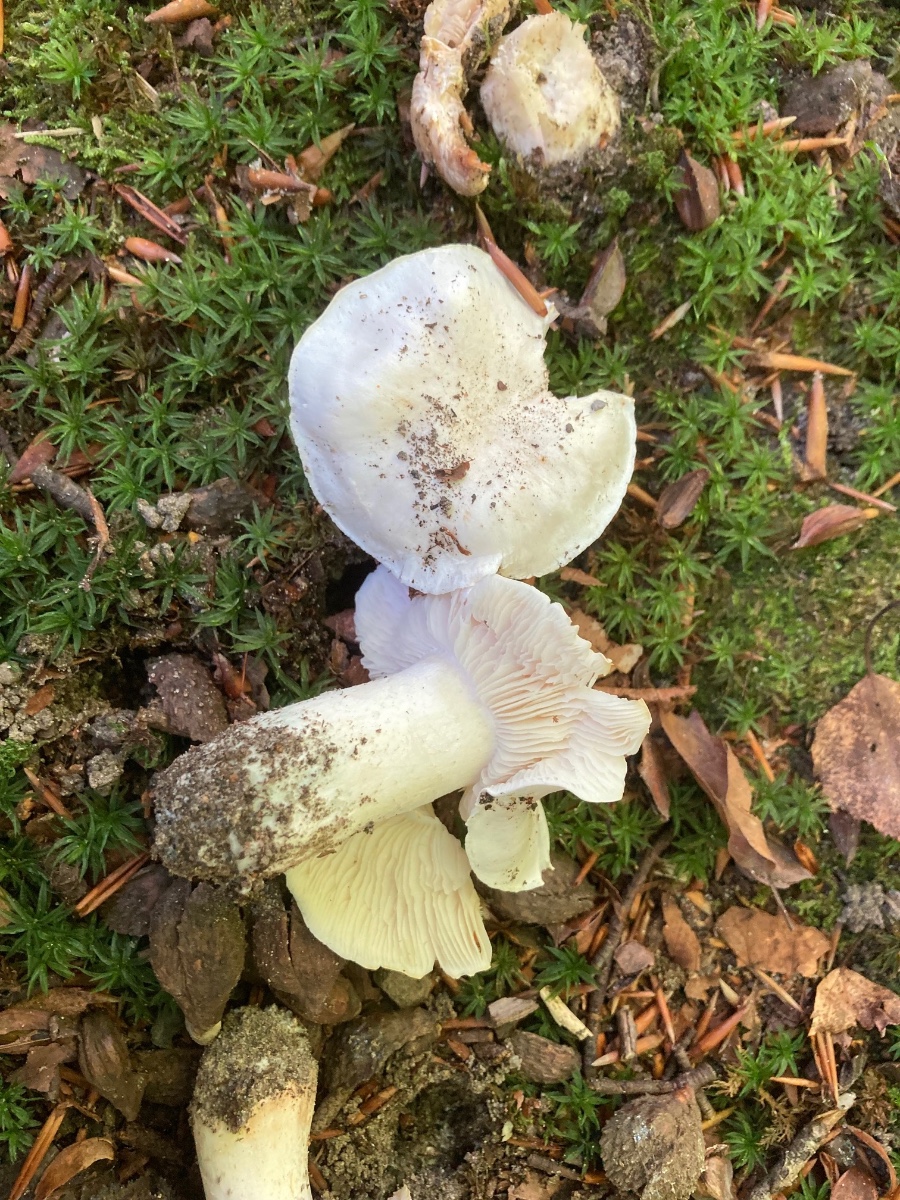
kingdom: Fungi
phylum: Basidiomycota
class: Agaricomycetes
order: Agaricales
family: Tricholomataceae
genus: Tricholoma
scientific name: Tricholoma columbetta
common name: silke-ridderhat
